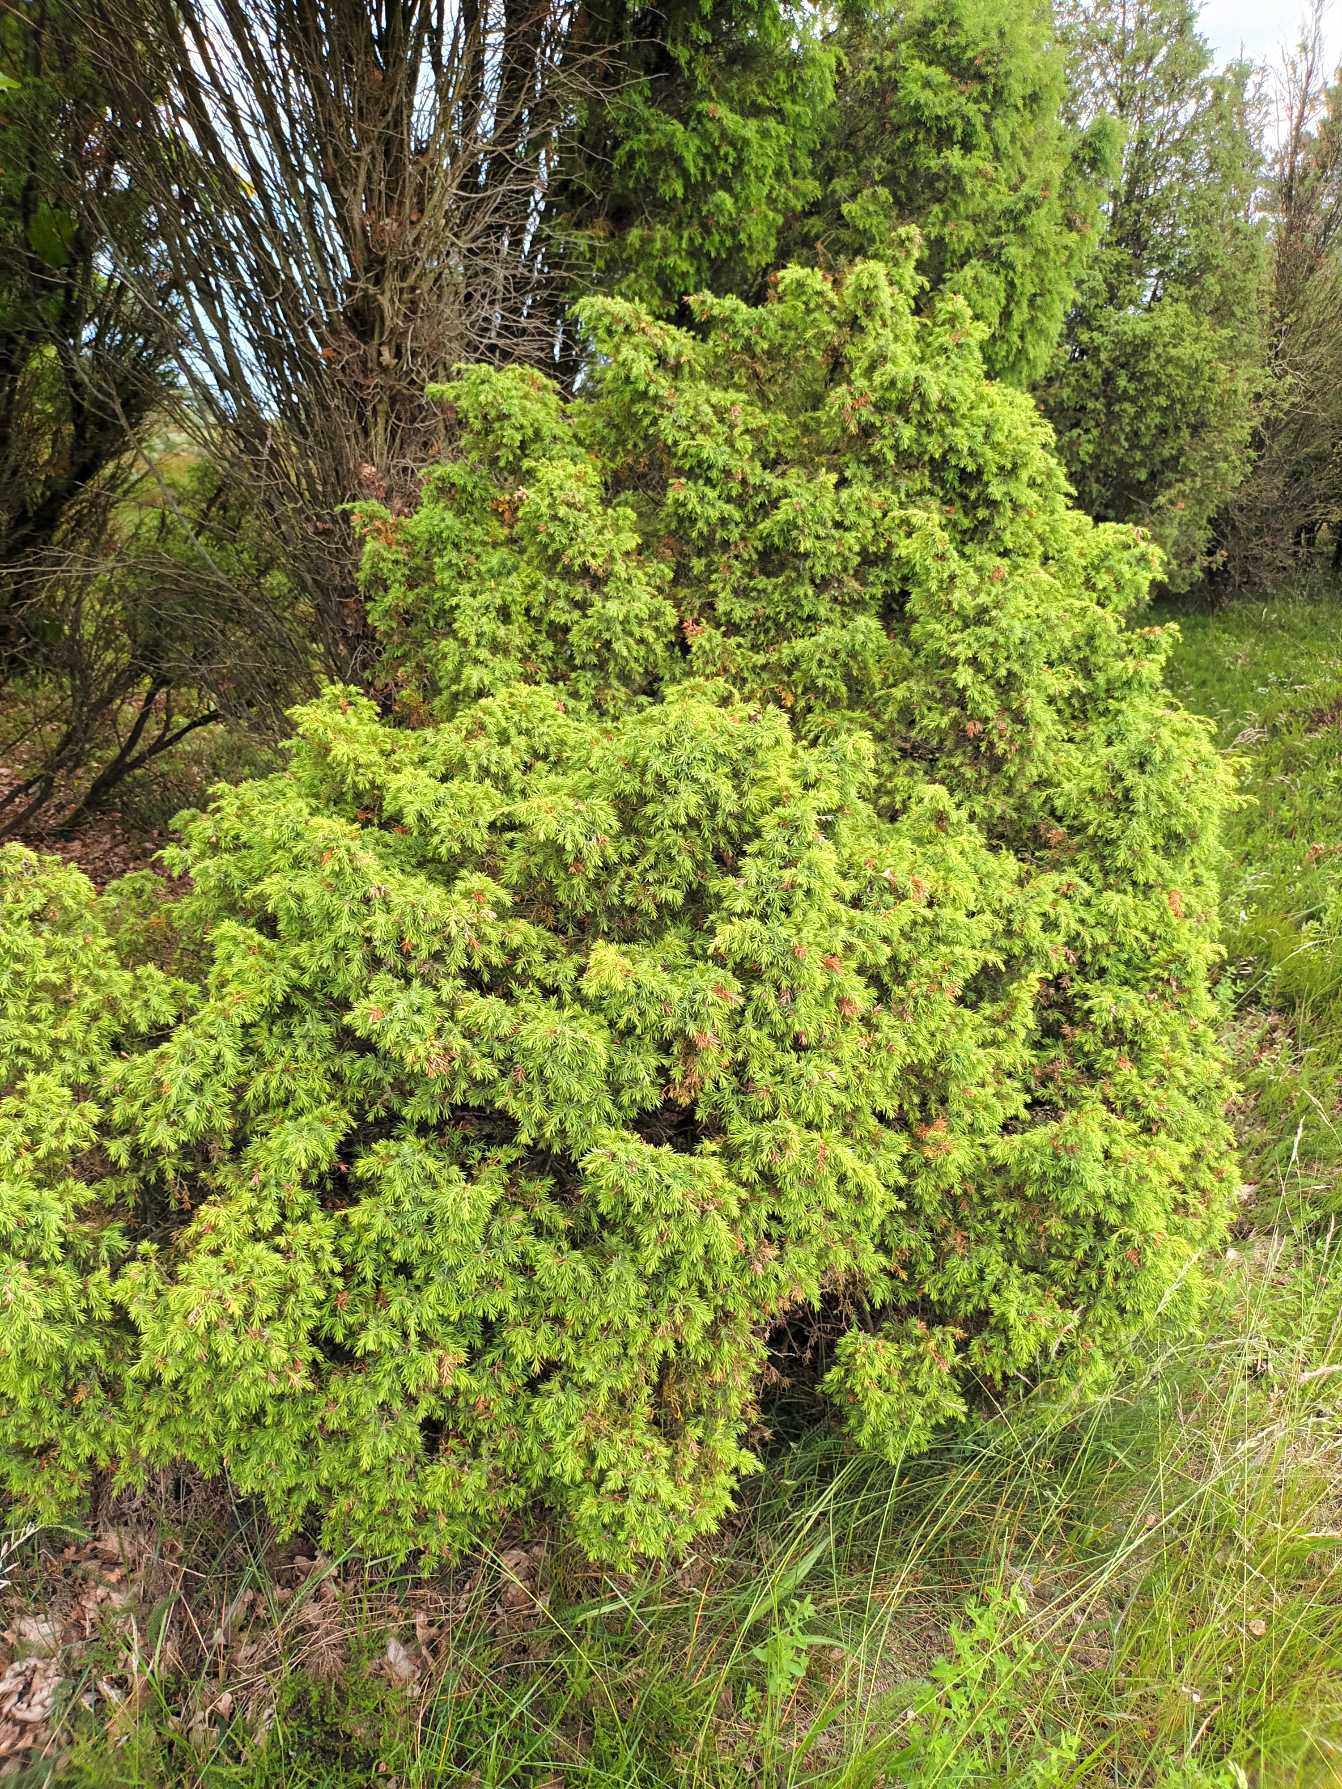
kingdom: Plantae
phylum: Tracheophyta
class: Pinopsida
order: Pinales
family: Cupressaceae
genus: Juniperus
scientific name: Juniperus communis
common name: Almindelig ene
